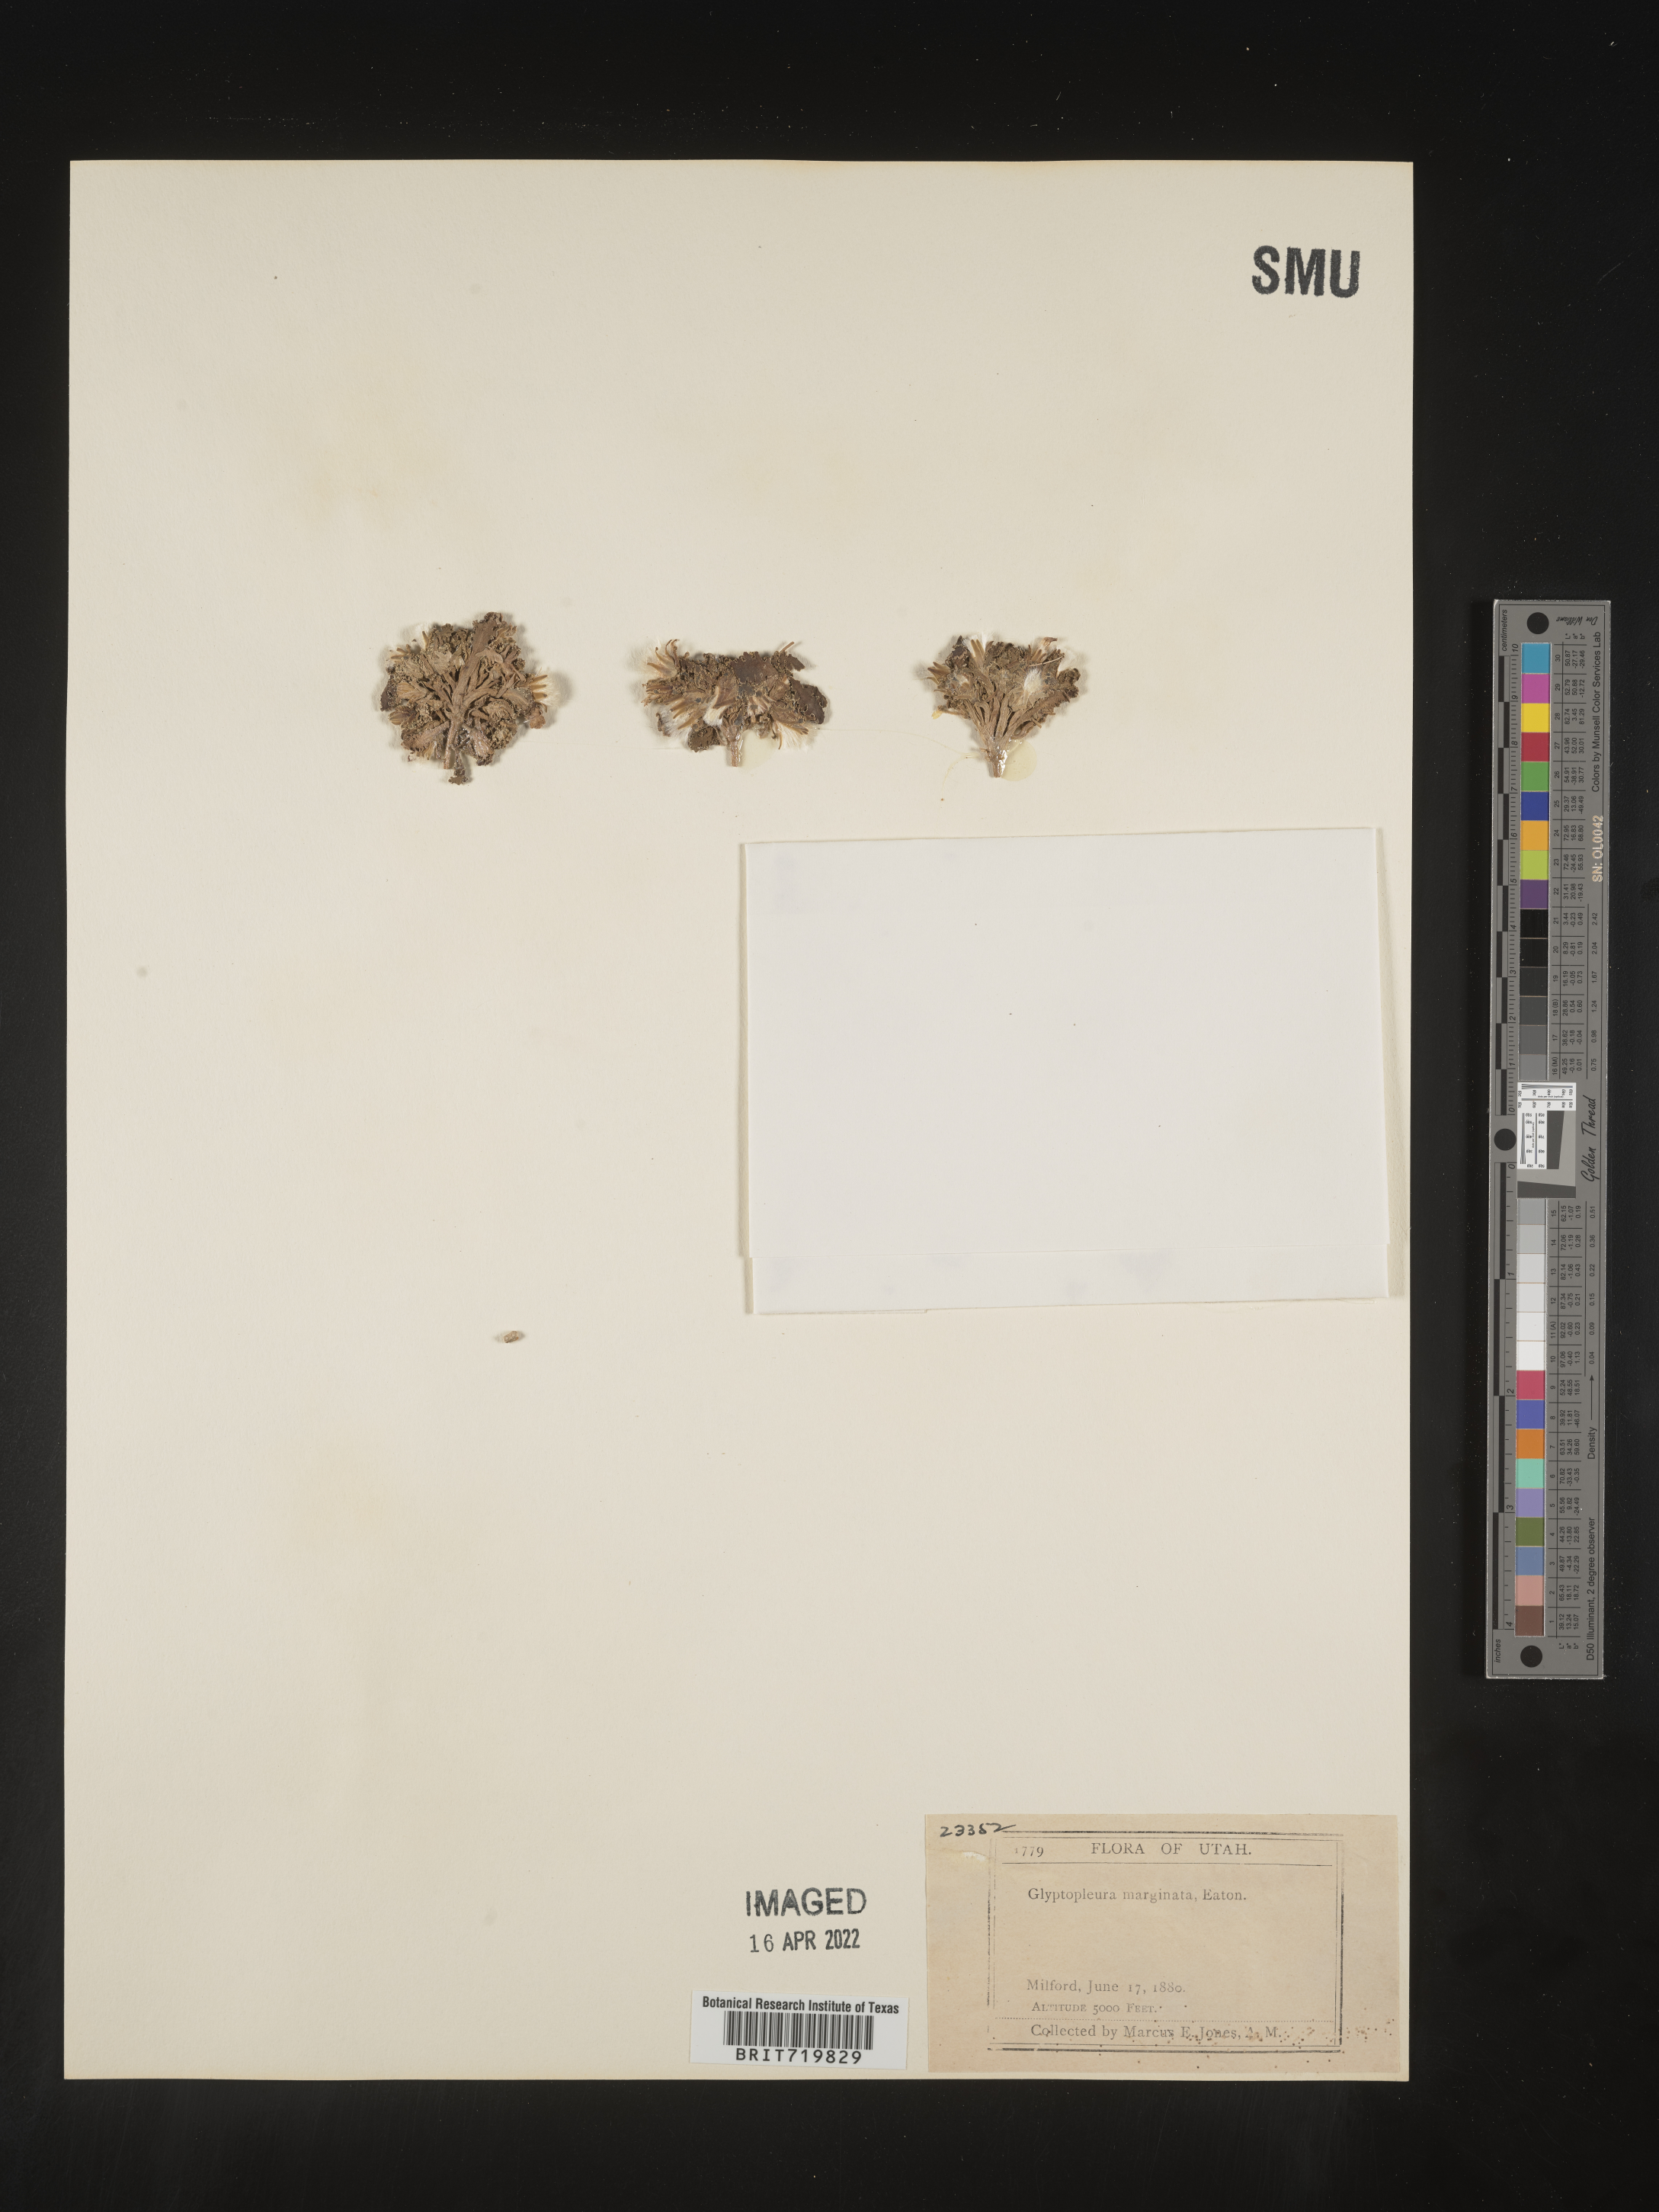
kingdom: Plantae
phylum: Tracheophyta
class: Magnoliopsida
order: Asterales
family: Asteraceae
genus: Glyptopleura
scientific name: Glyptopleura
